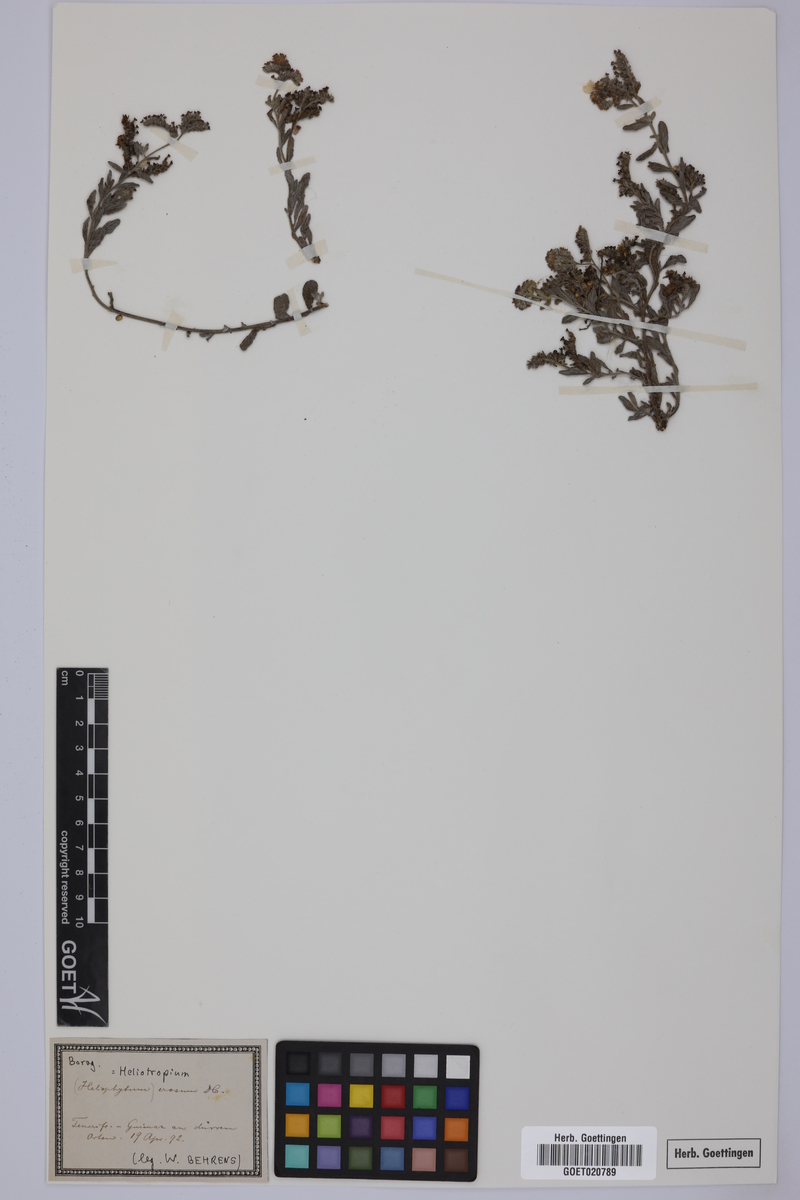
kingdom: Plantae
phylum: Tracheophyta
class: Magnoliopsida
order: Boraginales
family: Heliotropiaceae
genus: Heliotropium
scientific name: Heliotropium crispum
